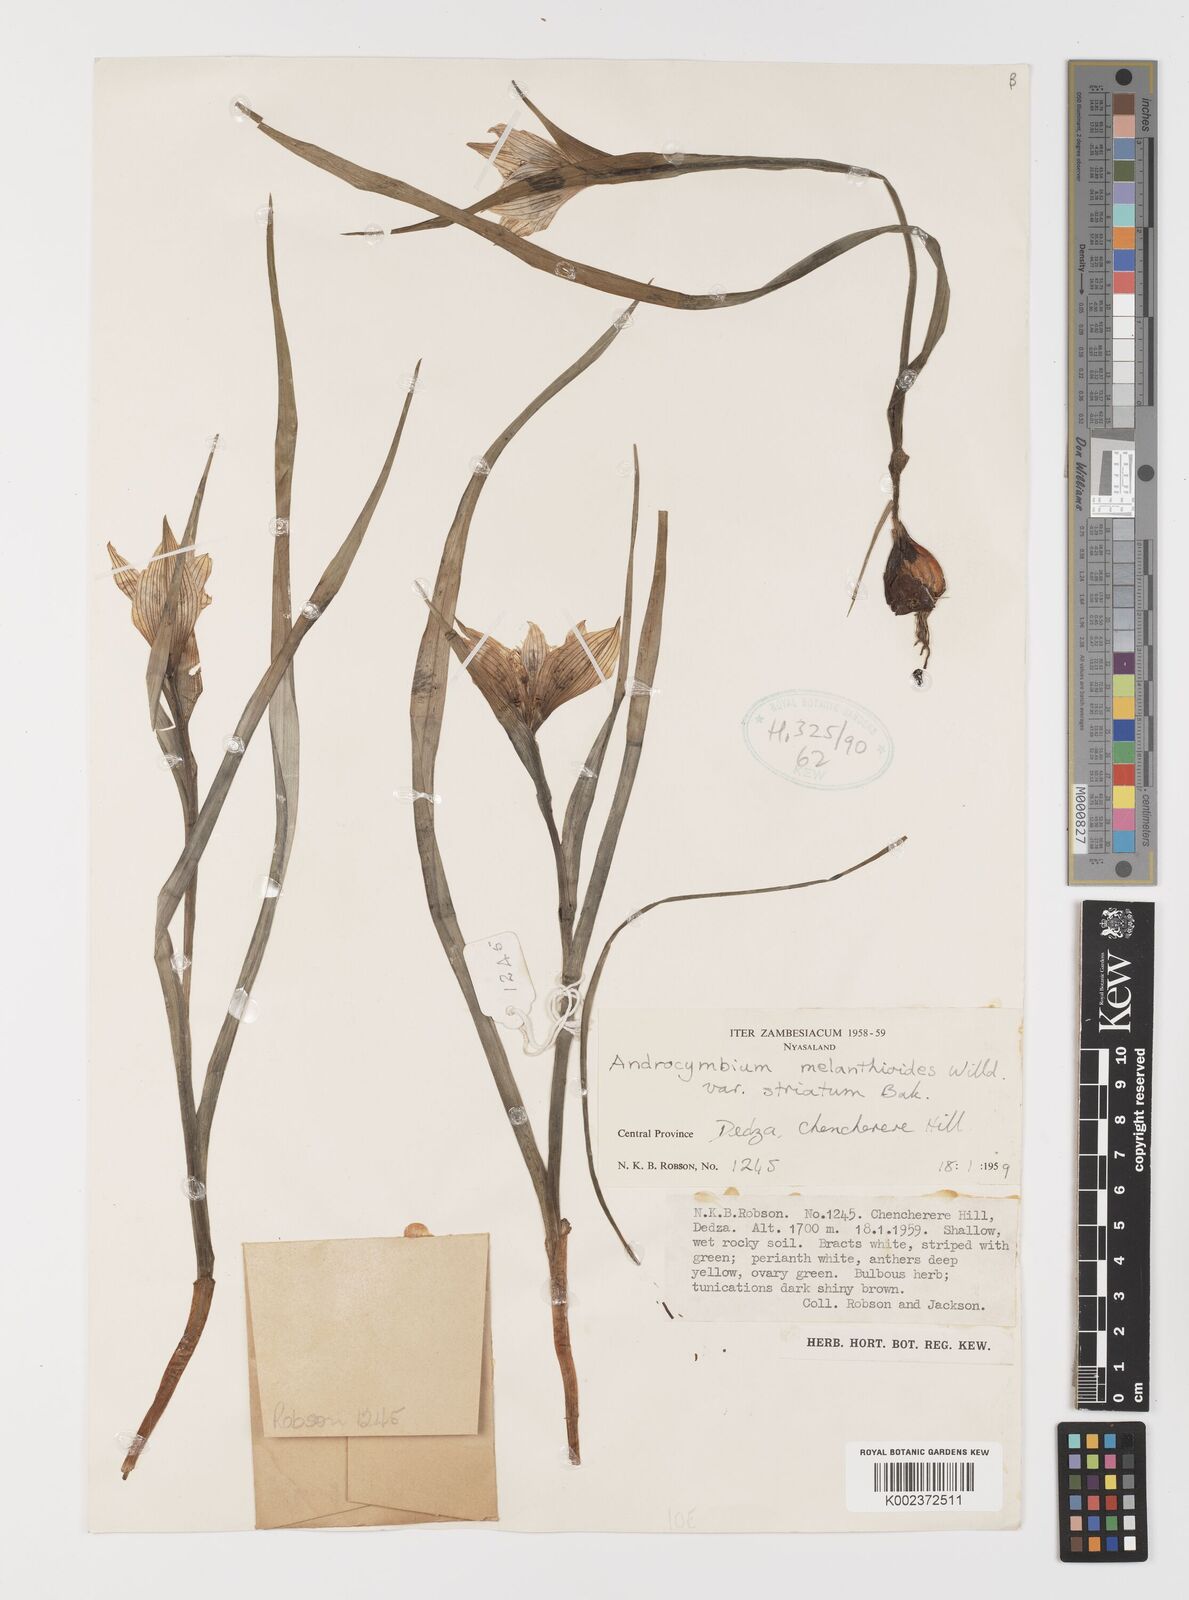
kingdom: Plantae
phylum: Tracheophyta
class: Liliopsida
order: Liliales
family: Colchicaceae
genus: Colchicum
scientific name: Colchicum melanthioides
